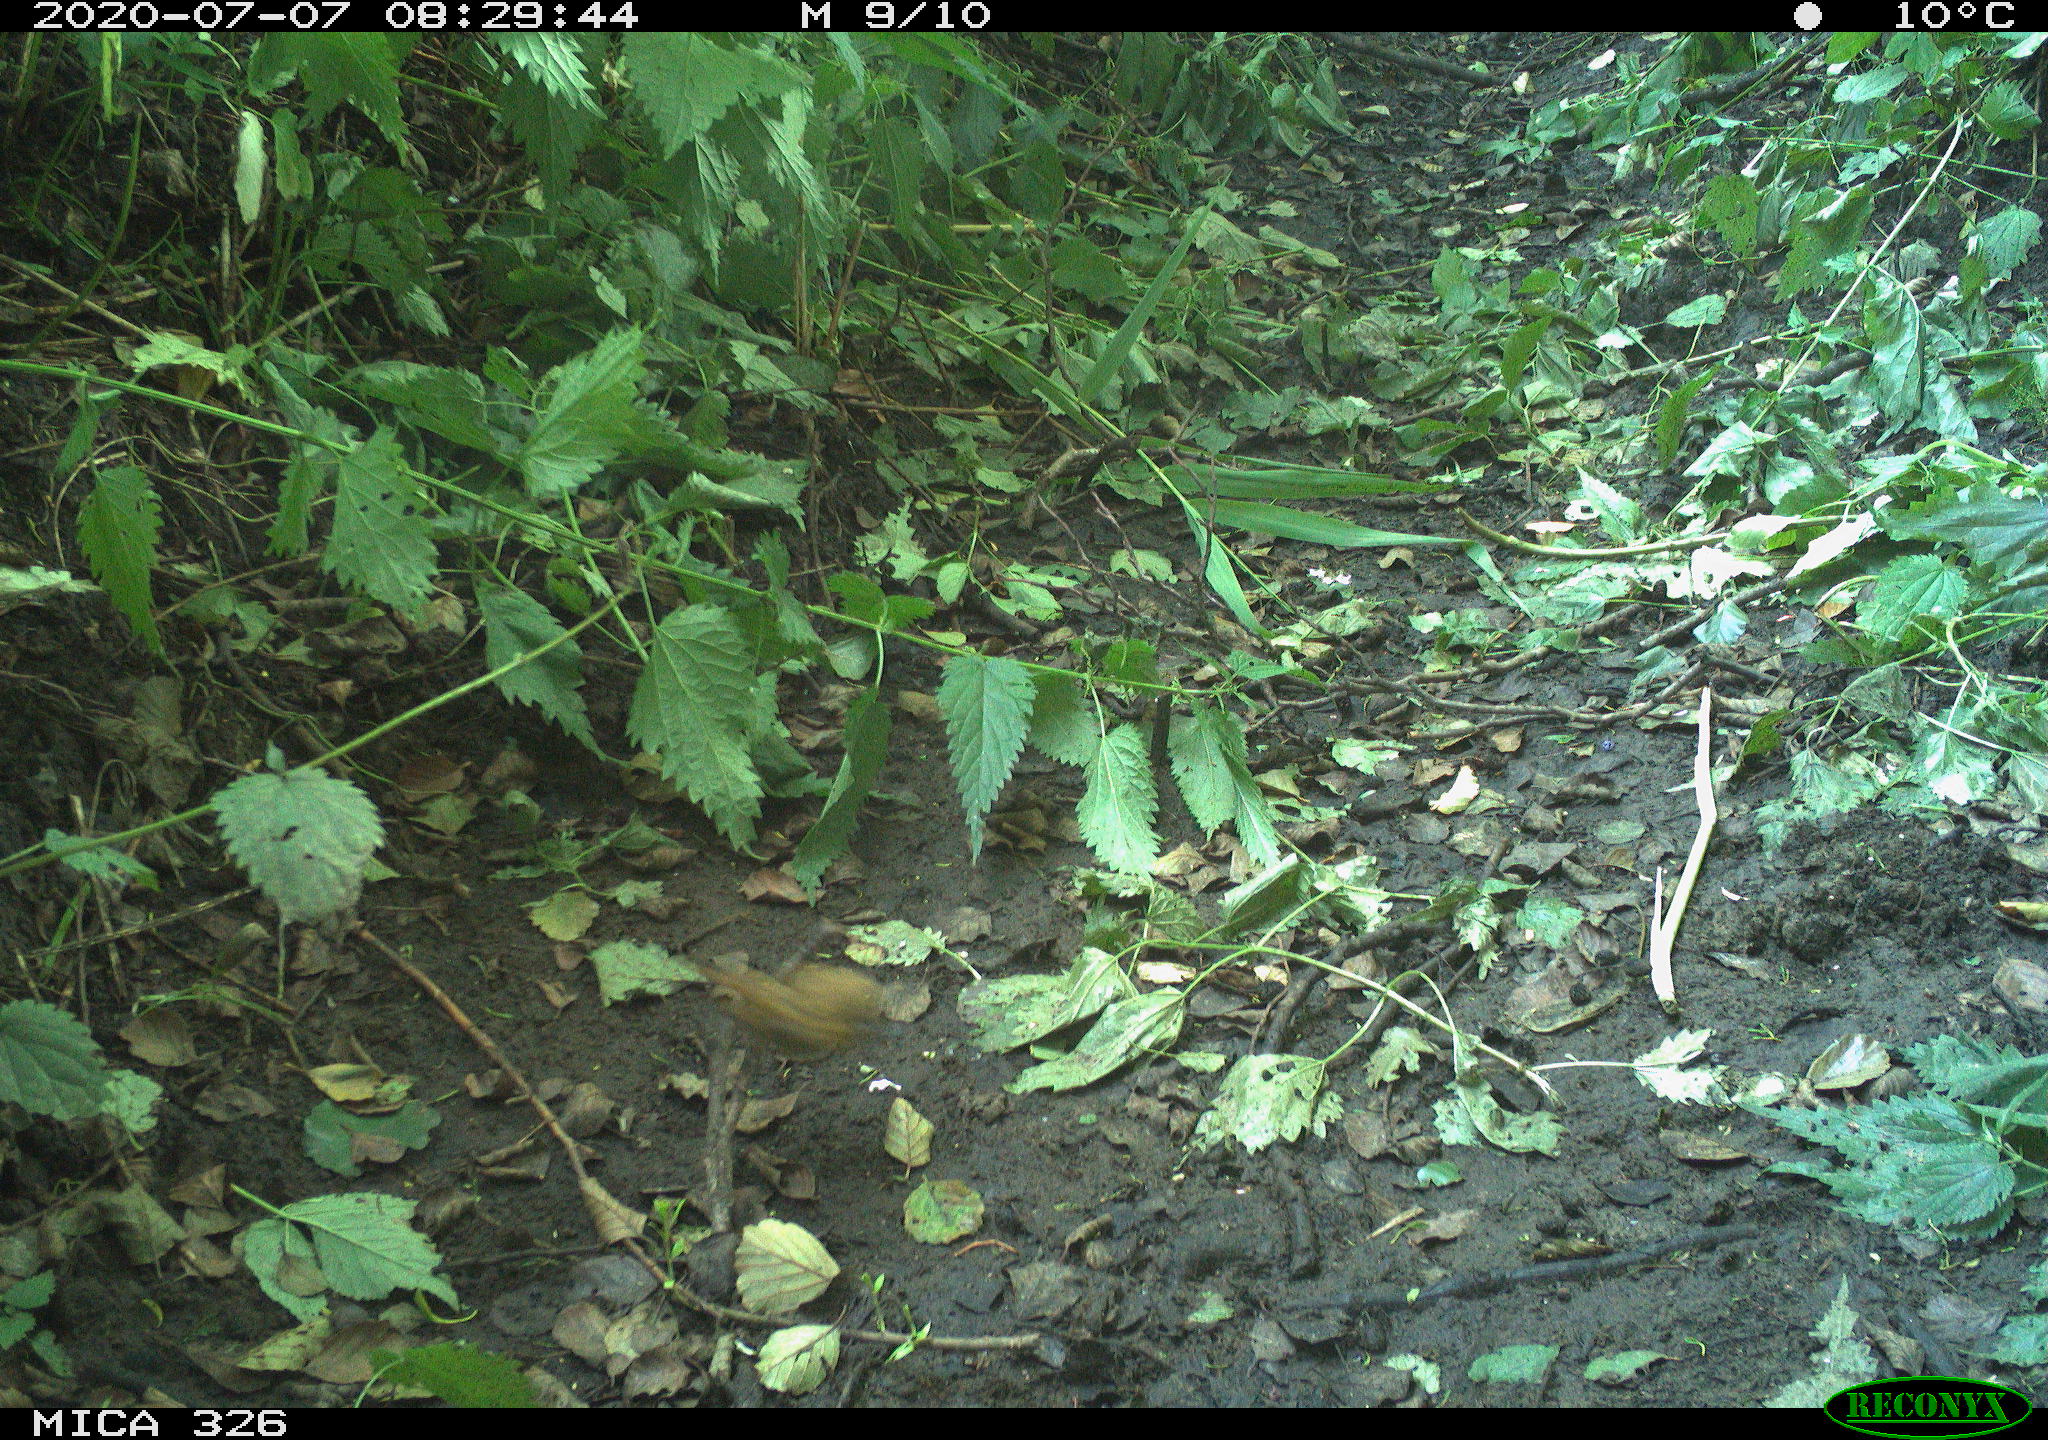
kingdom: Animalia
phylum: Chordata
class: Aves
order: Passeriformes
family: Muscicapidae
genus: Erithacus
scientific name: Erithacus rubecula
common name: European robin
